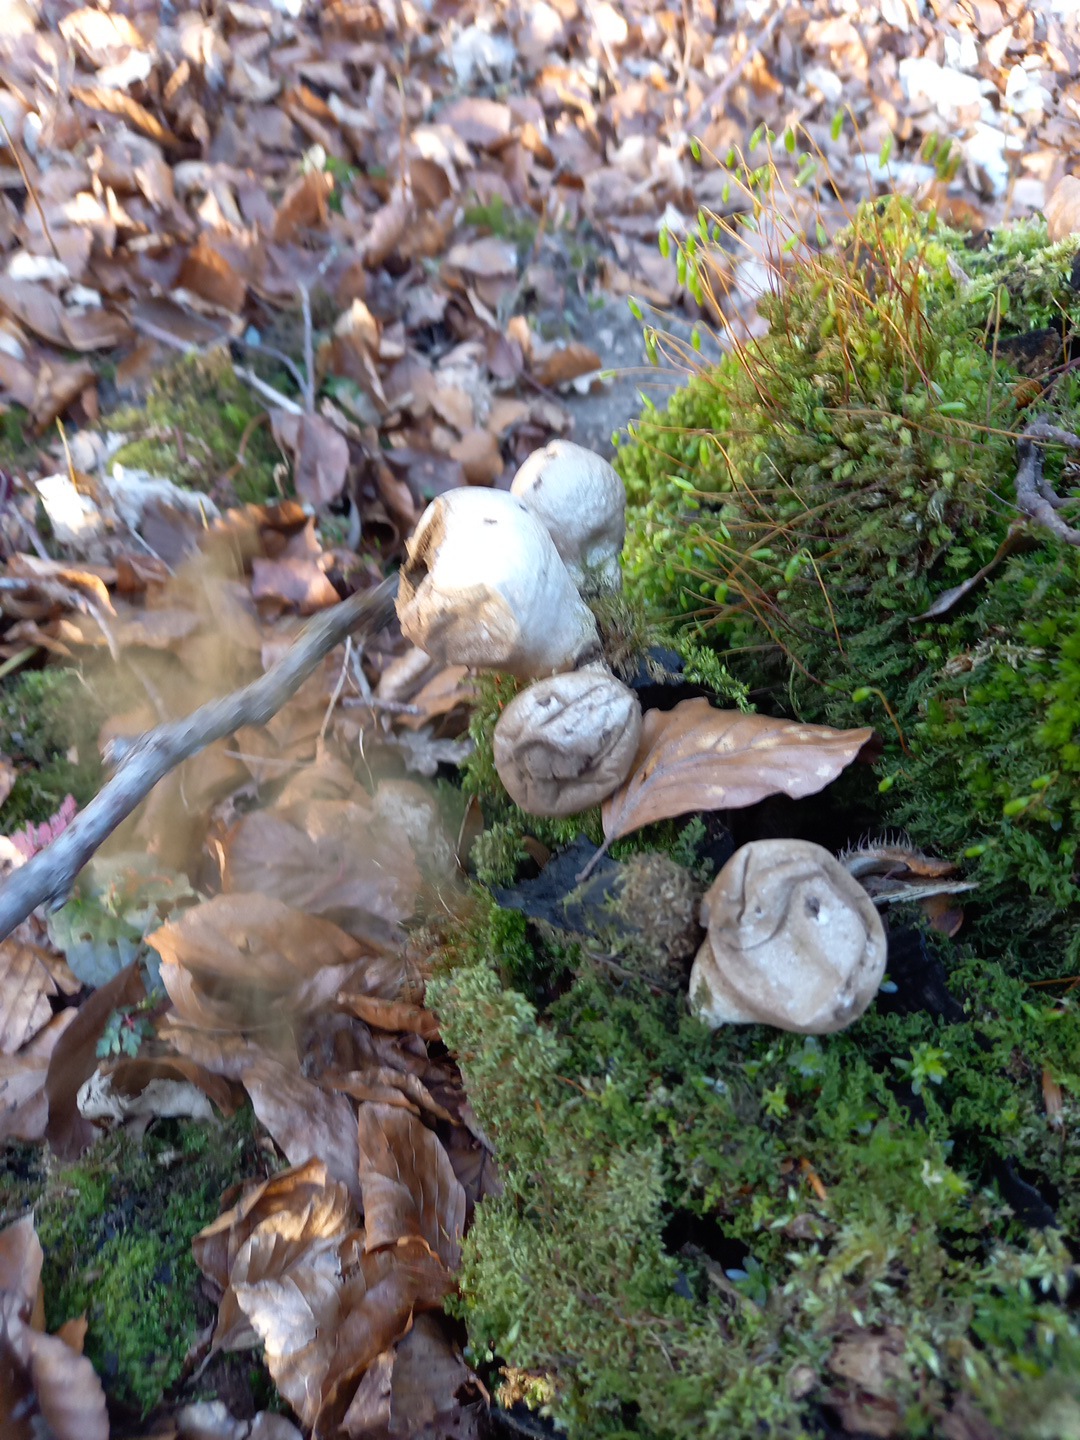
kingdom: Fungi
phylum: Basidiomycota
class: Agaricomycetes
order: Agaricales
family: Lycoperdaceae
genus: Apioperdon
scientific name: Apioperdon pyriforme
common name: pære-støvbold
